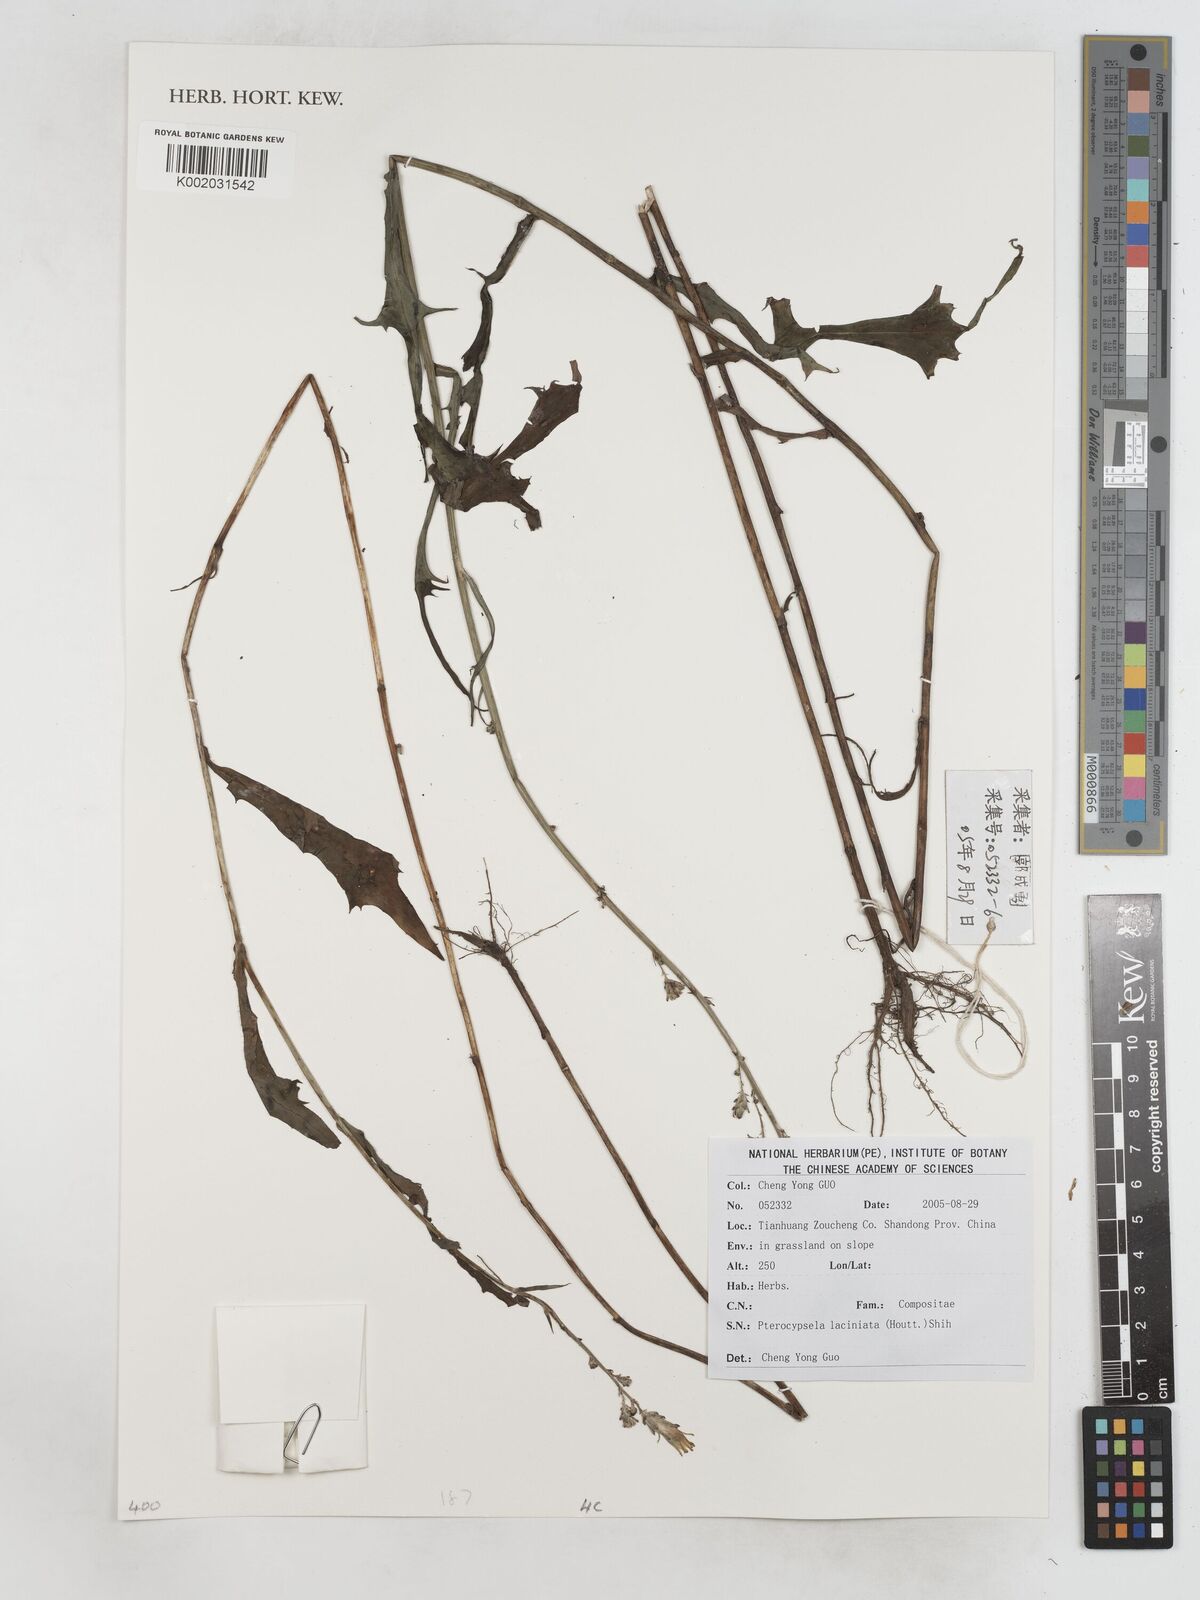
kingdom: Plantae
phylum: Tracheophyta
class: Magnoliopsida
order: Asterales
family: Asteraceae
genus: Lactuca
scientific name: Lactuca indica
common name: Wild lettuce
